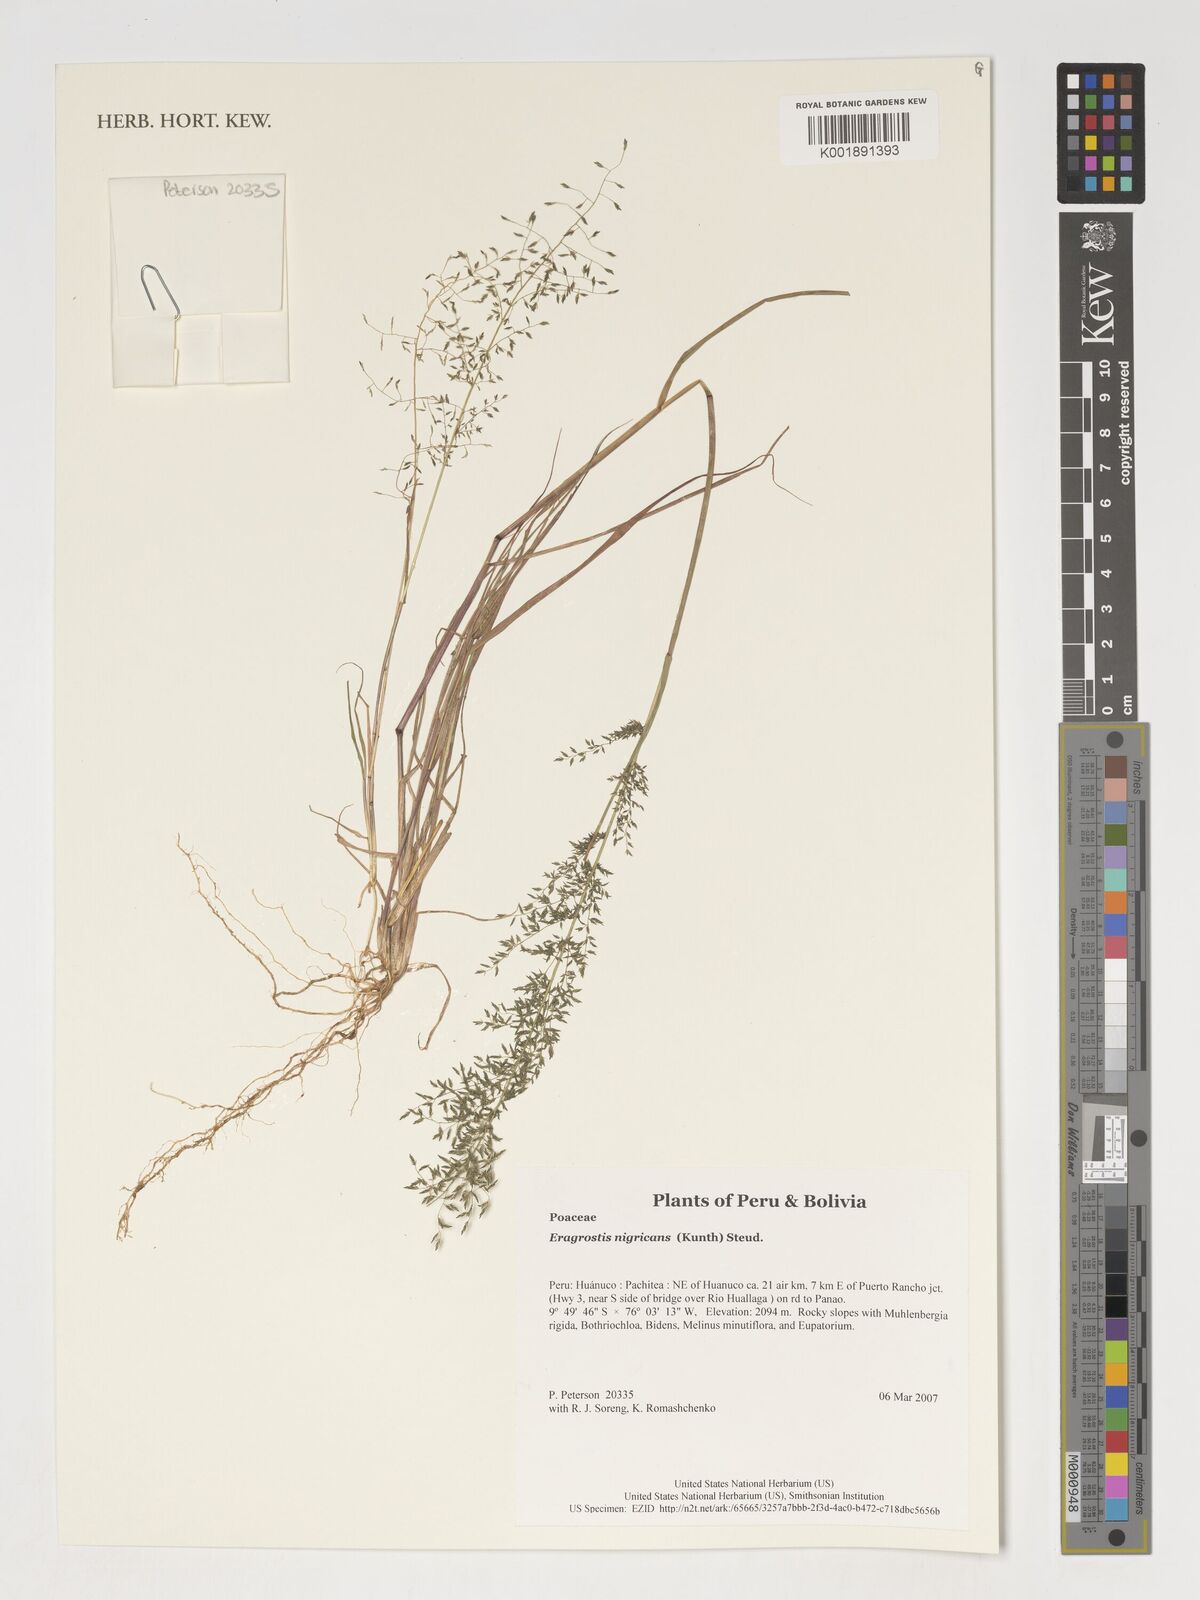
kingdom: Plantae
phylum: Tracheophyta
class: Liliopsida
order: Poales
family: Poaceae
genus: Eragrostis
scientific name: Eragrostis nigricans
